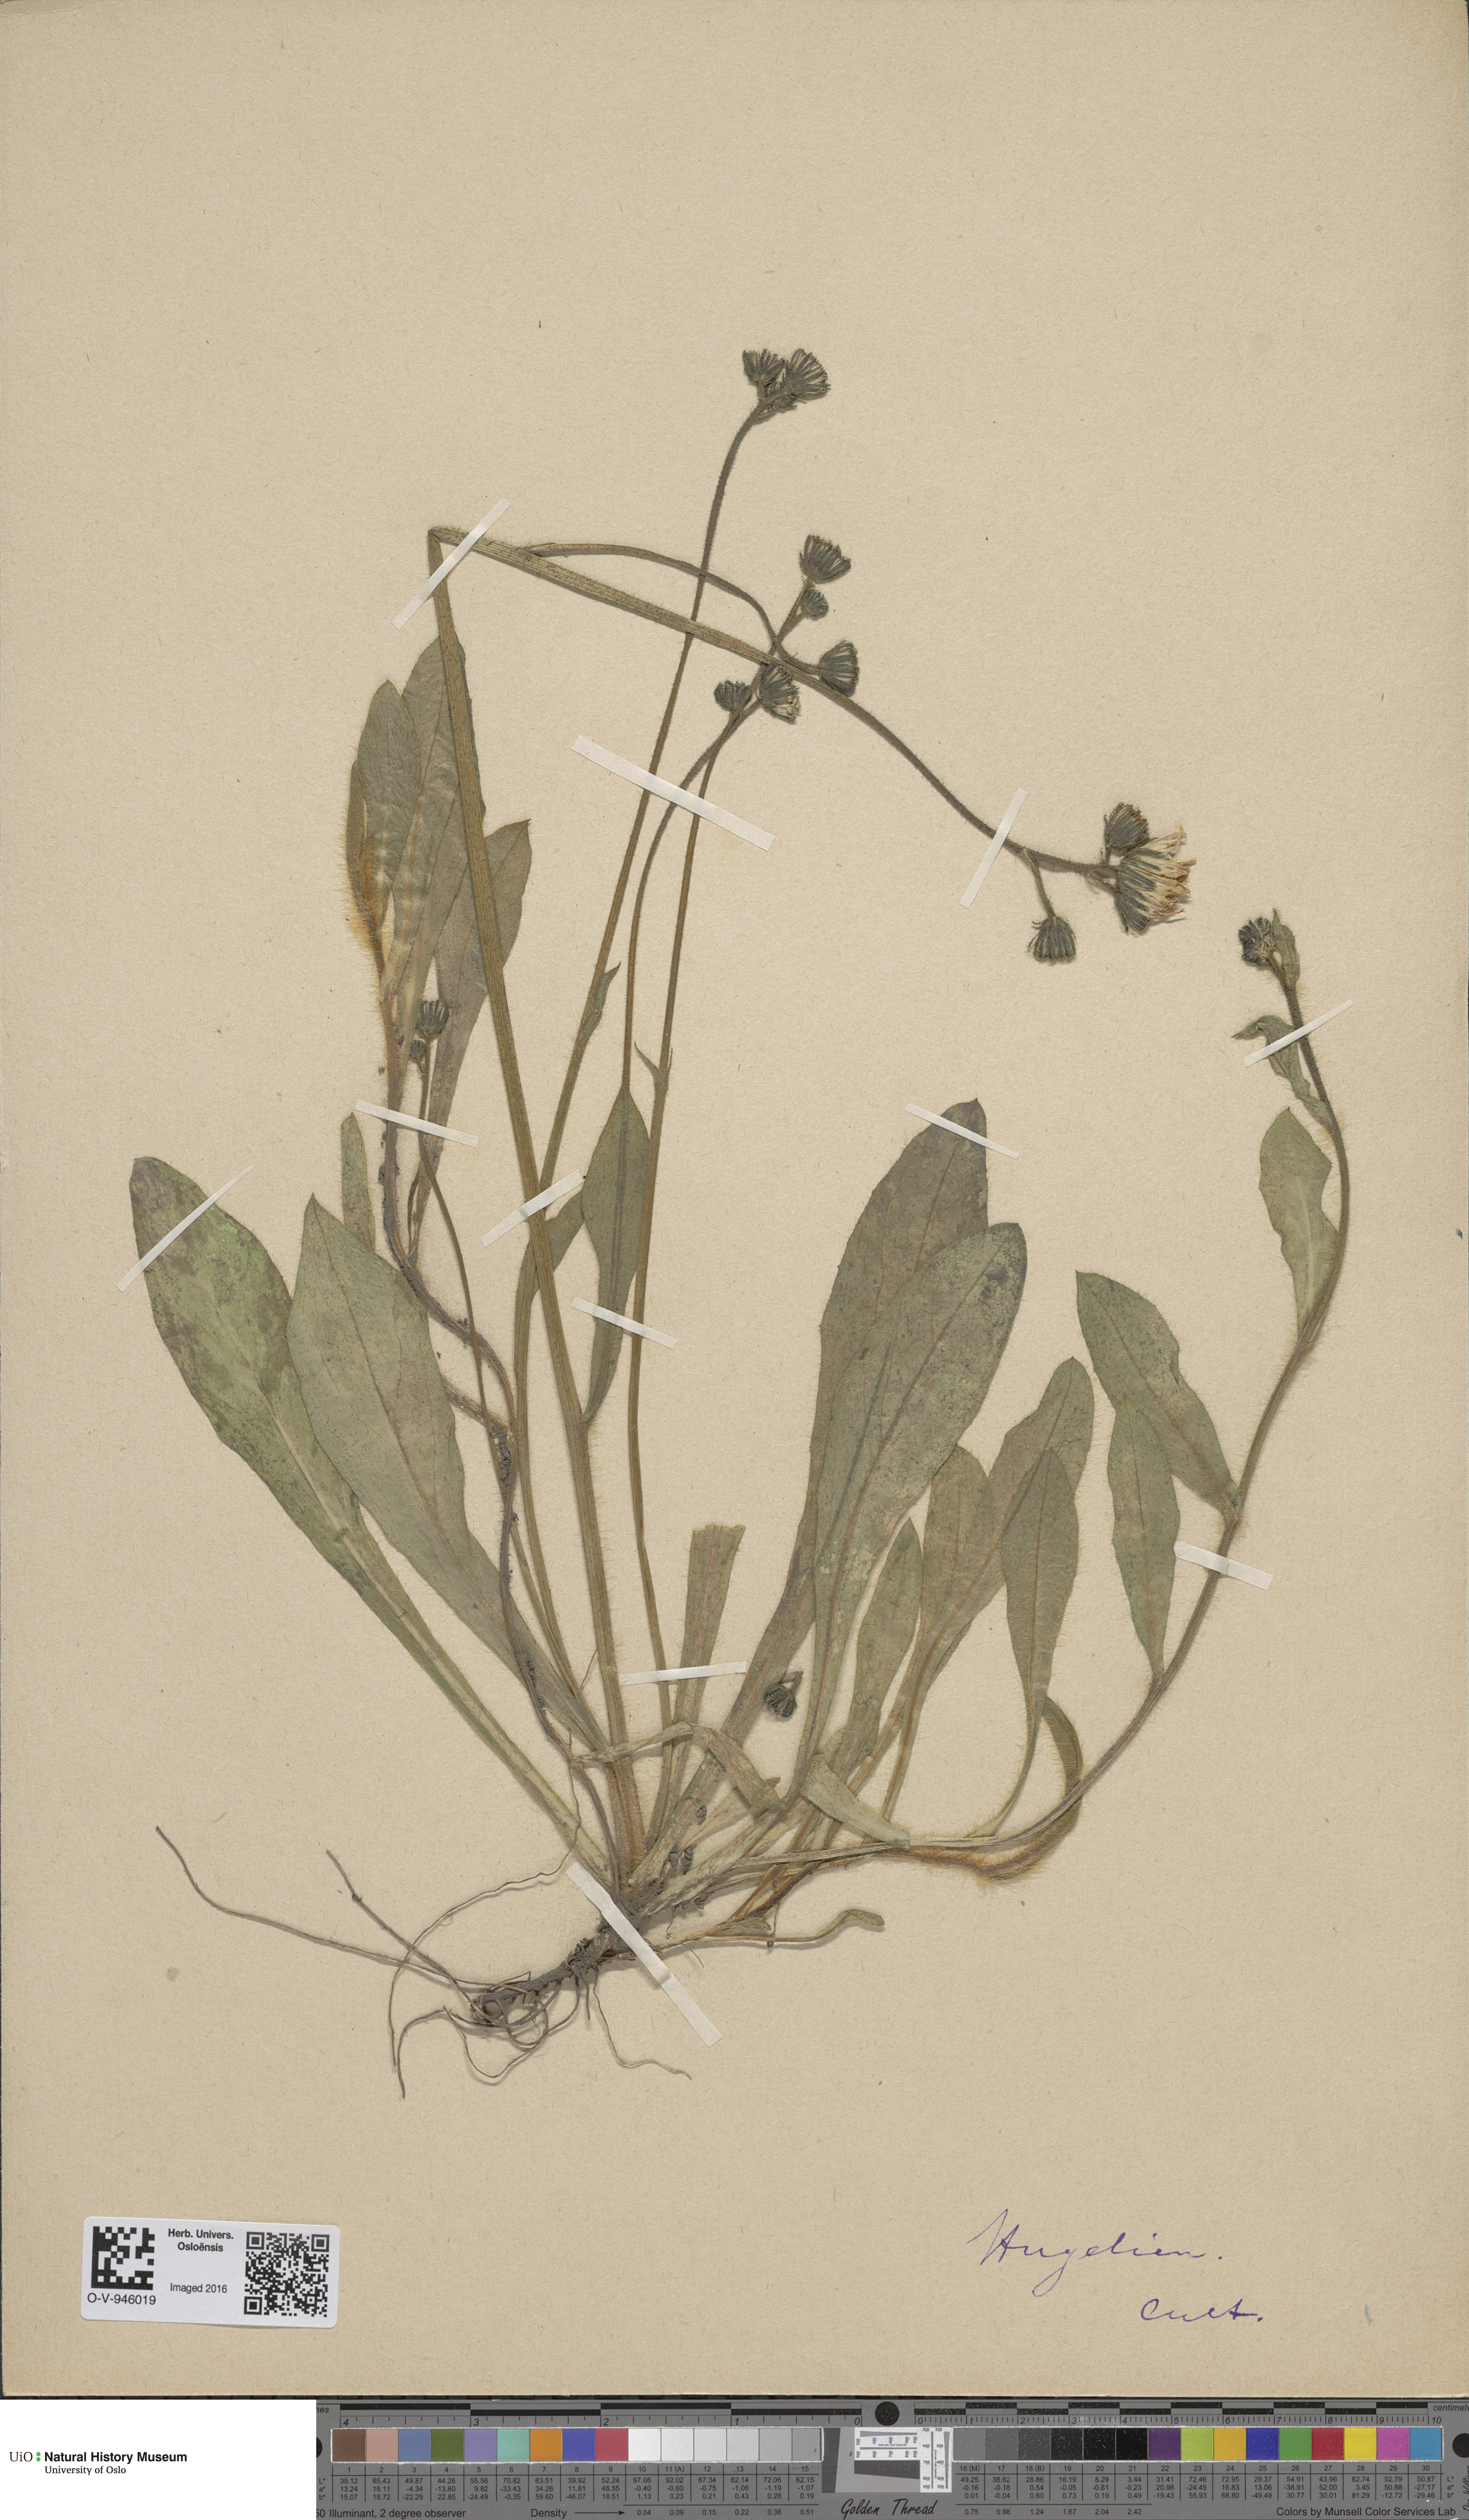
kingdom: Plantae
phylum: Tracheophyta
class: Magnoliopsida
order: Asterales
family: Asteraceae
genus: Hieracium
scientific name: Hieracium
